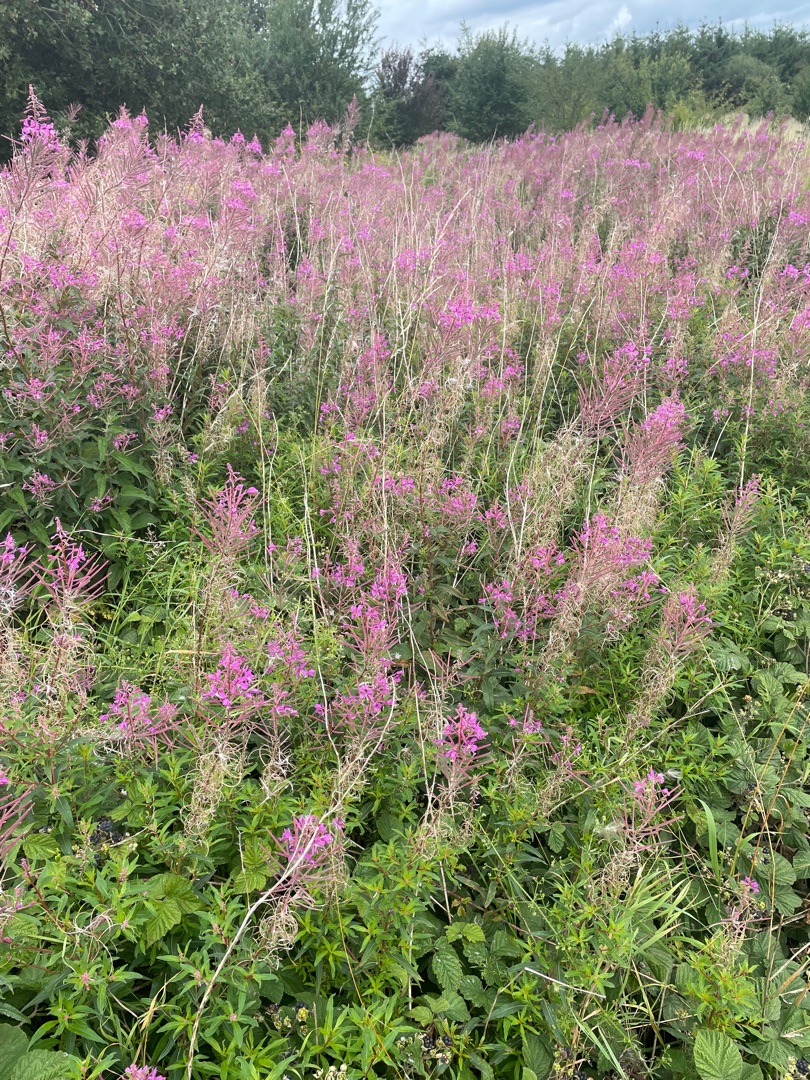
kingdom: Plantae
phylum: Tracheophyta
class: Magnoliopsida
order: Myrtales
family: Onagraceae
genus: Chamaenerion
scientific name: Chamaenerion angustifolium
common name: Gederams
